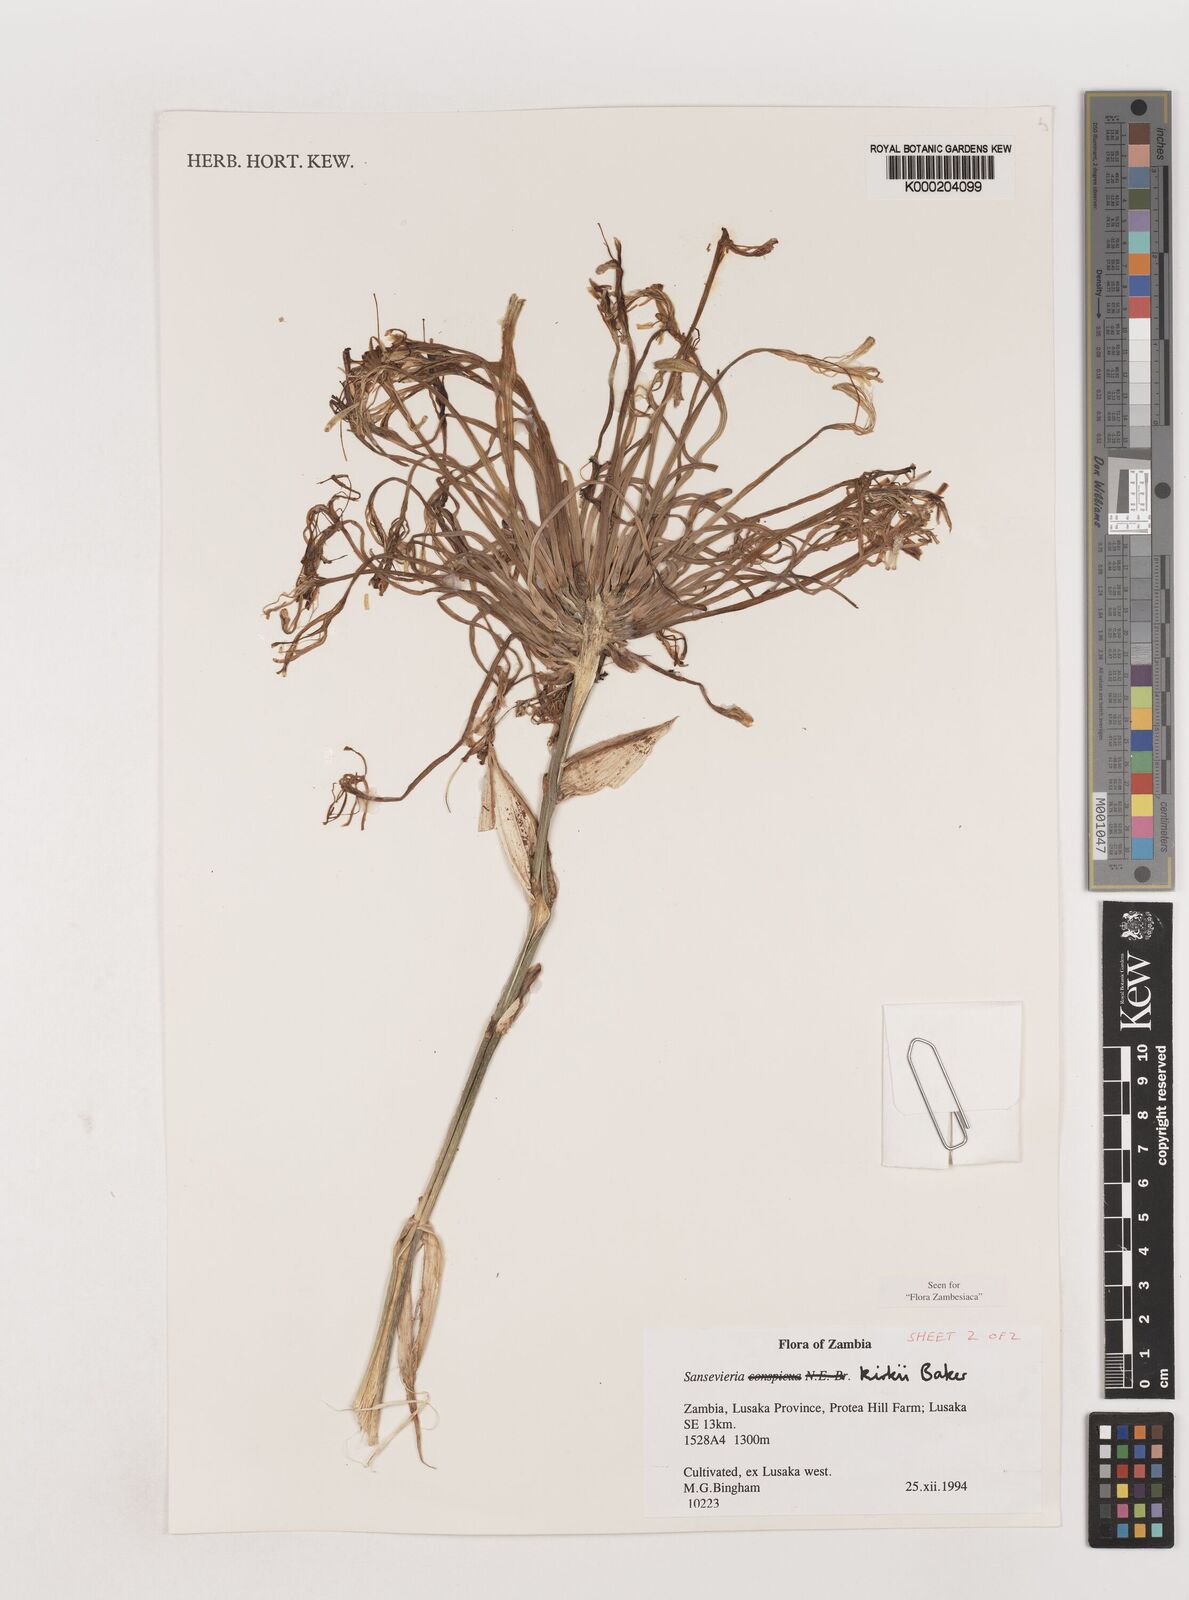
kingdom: Plantae
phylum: Tracheophyta
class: Liliopsida
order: Asparagales
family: Asparagaceae
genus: Dracaena
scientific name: Dracaena pethera
